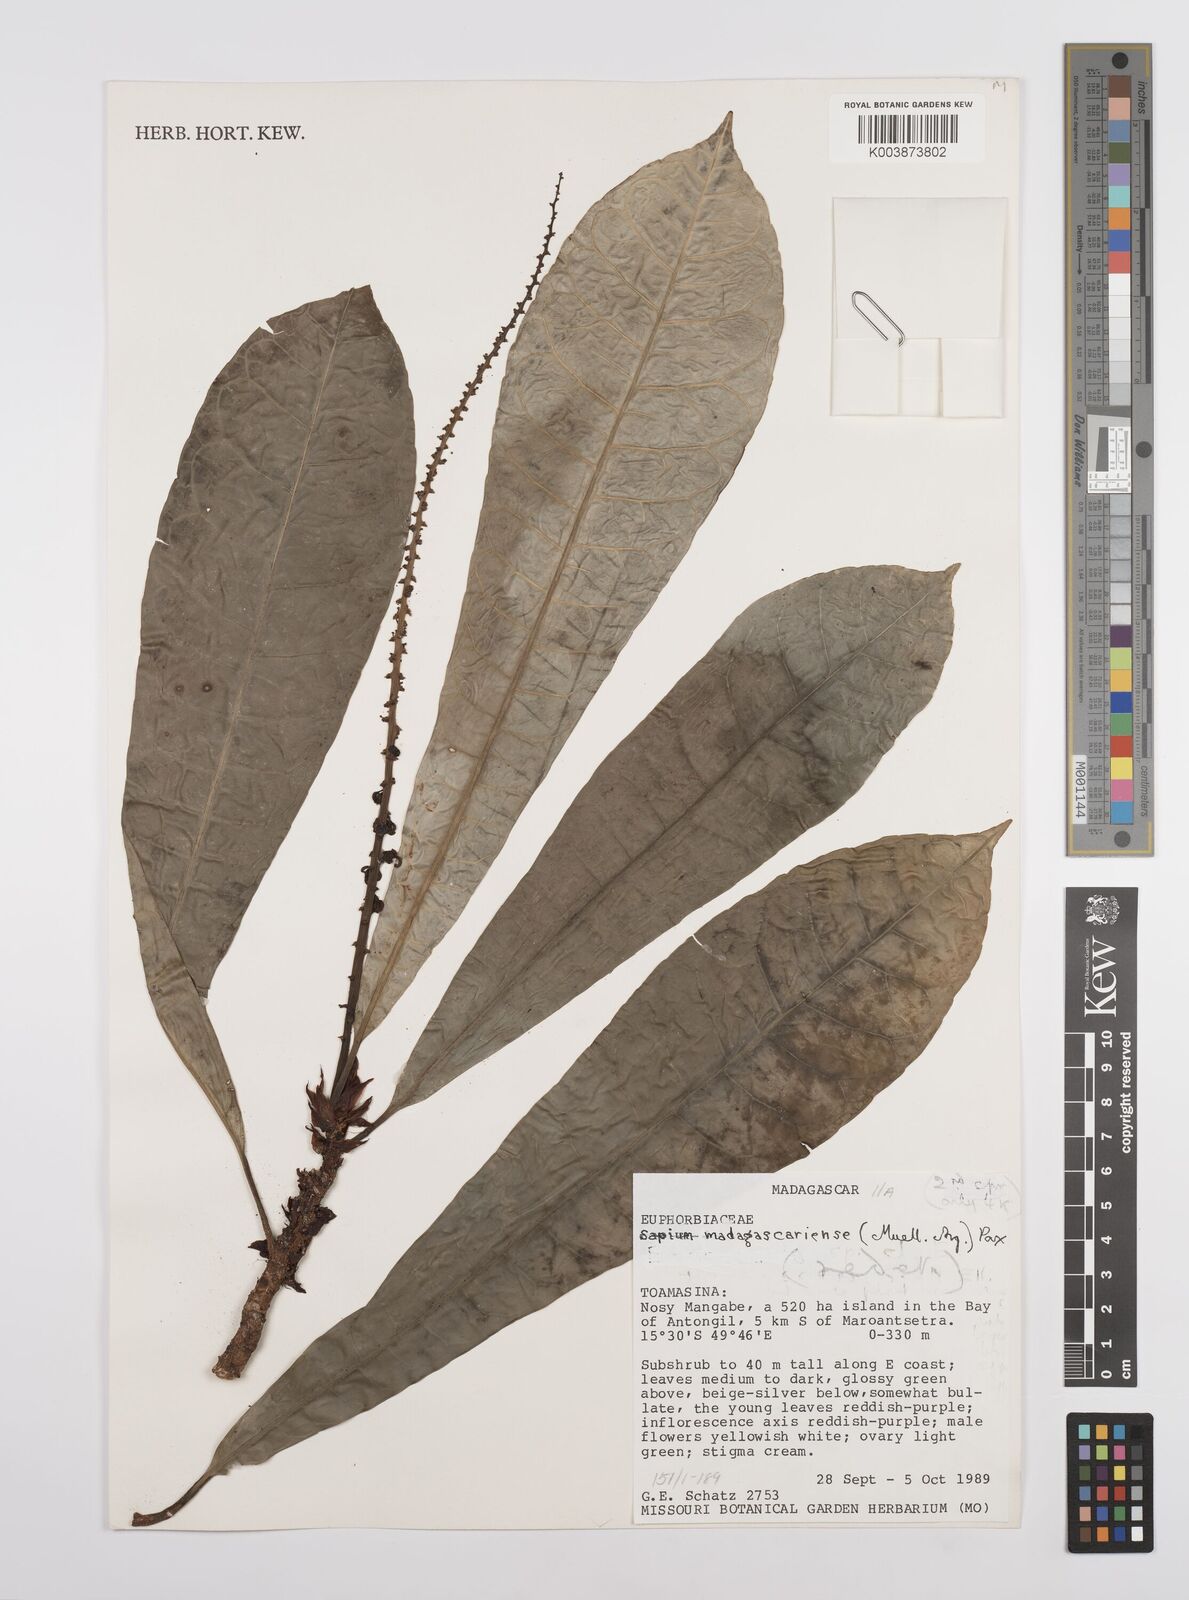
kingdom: Plantae
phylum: Tracheophyta
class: Magnoliopsida
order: Malpighiales
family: Euphorbiaceae
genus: Conosapium
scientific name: Conosapium madagascariense
